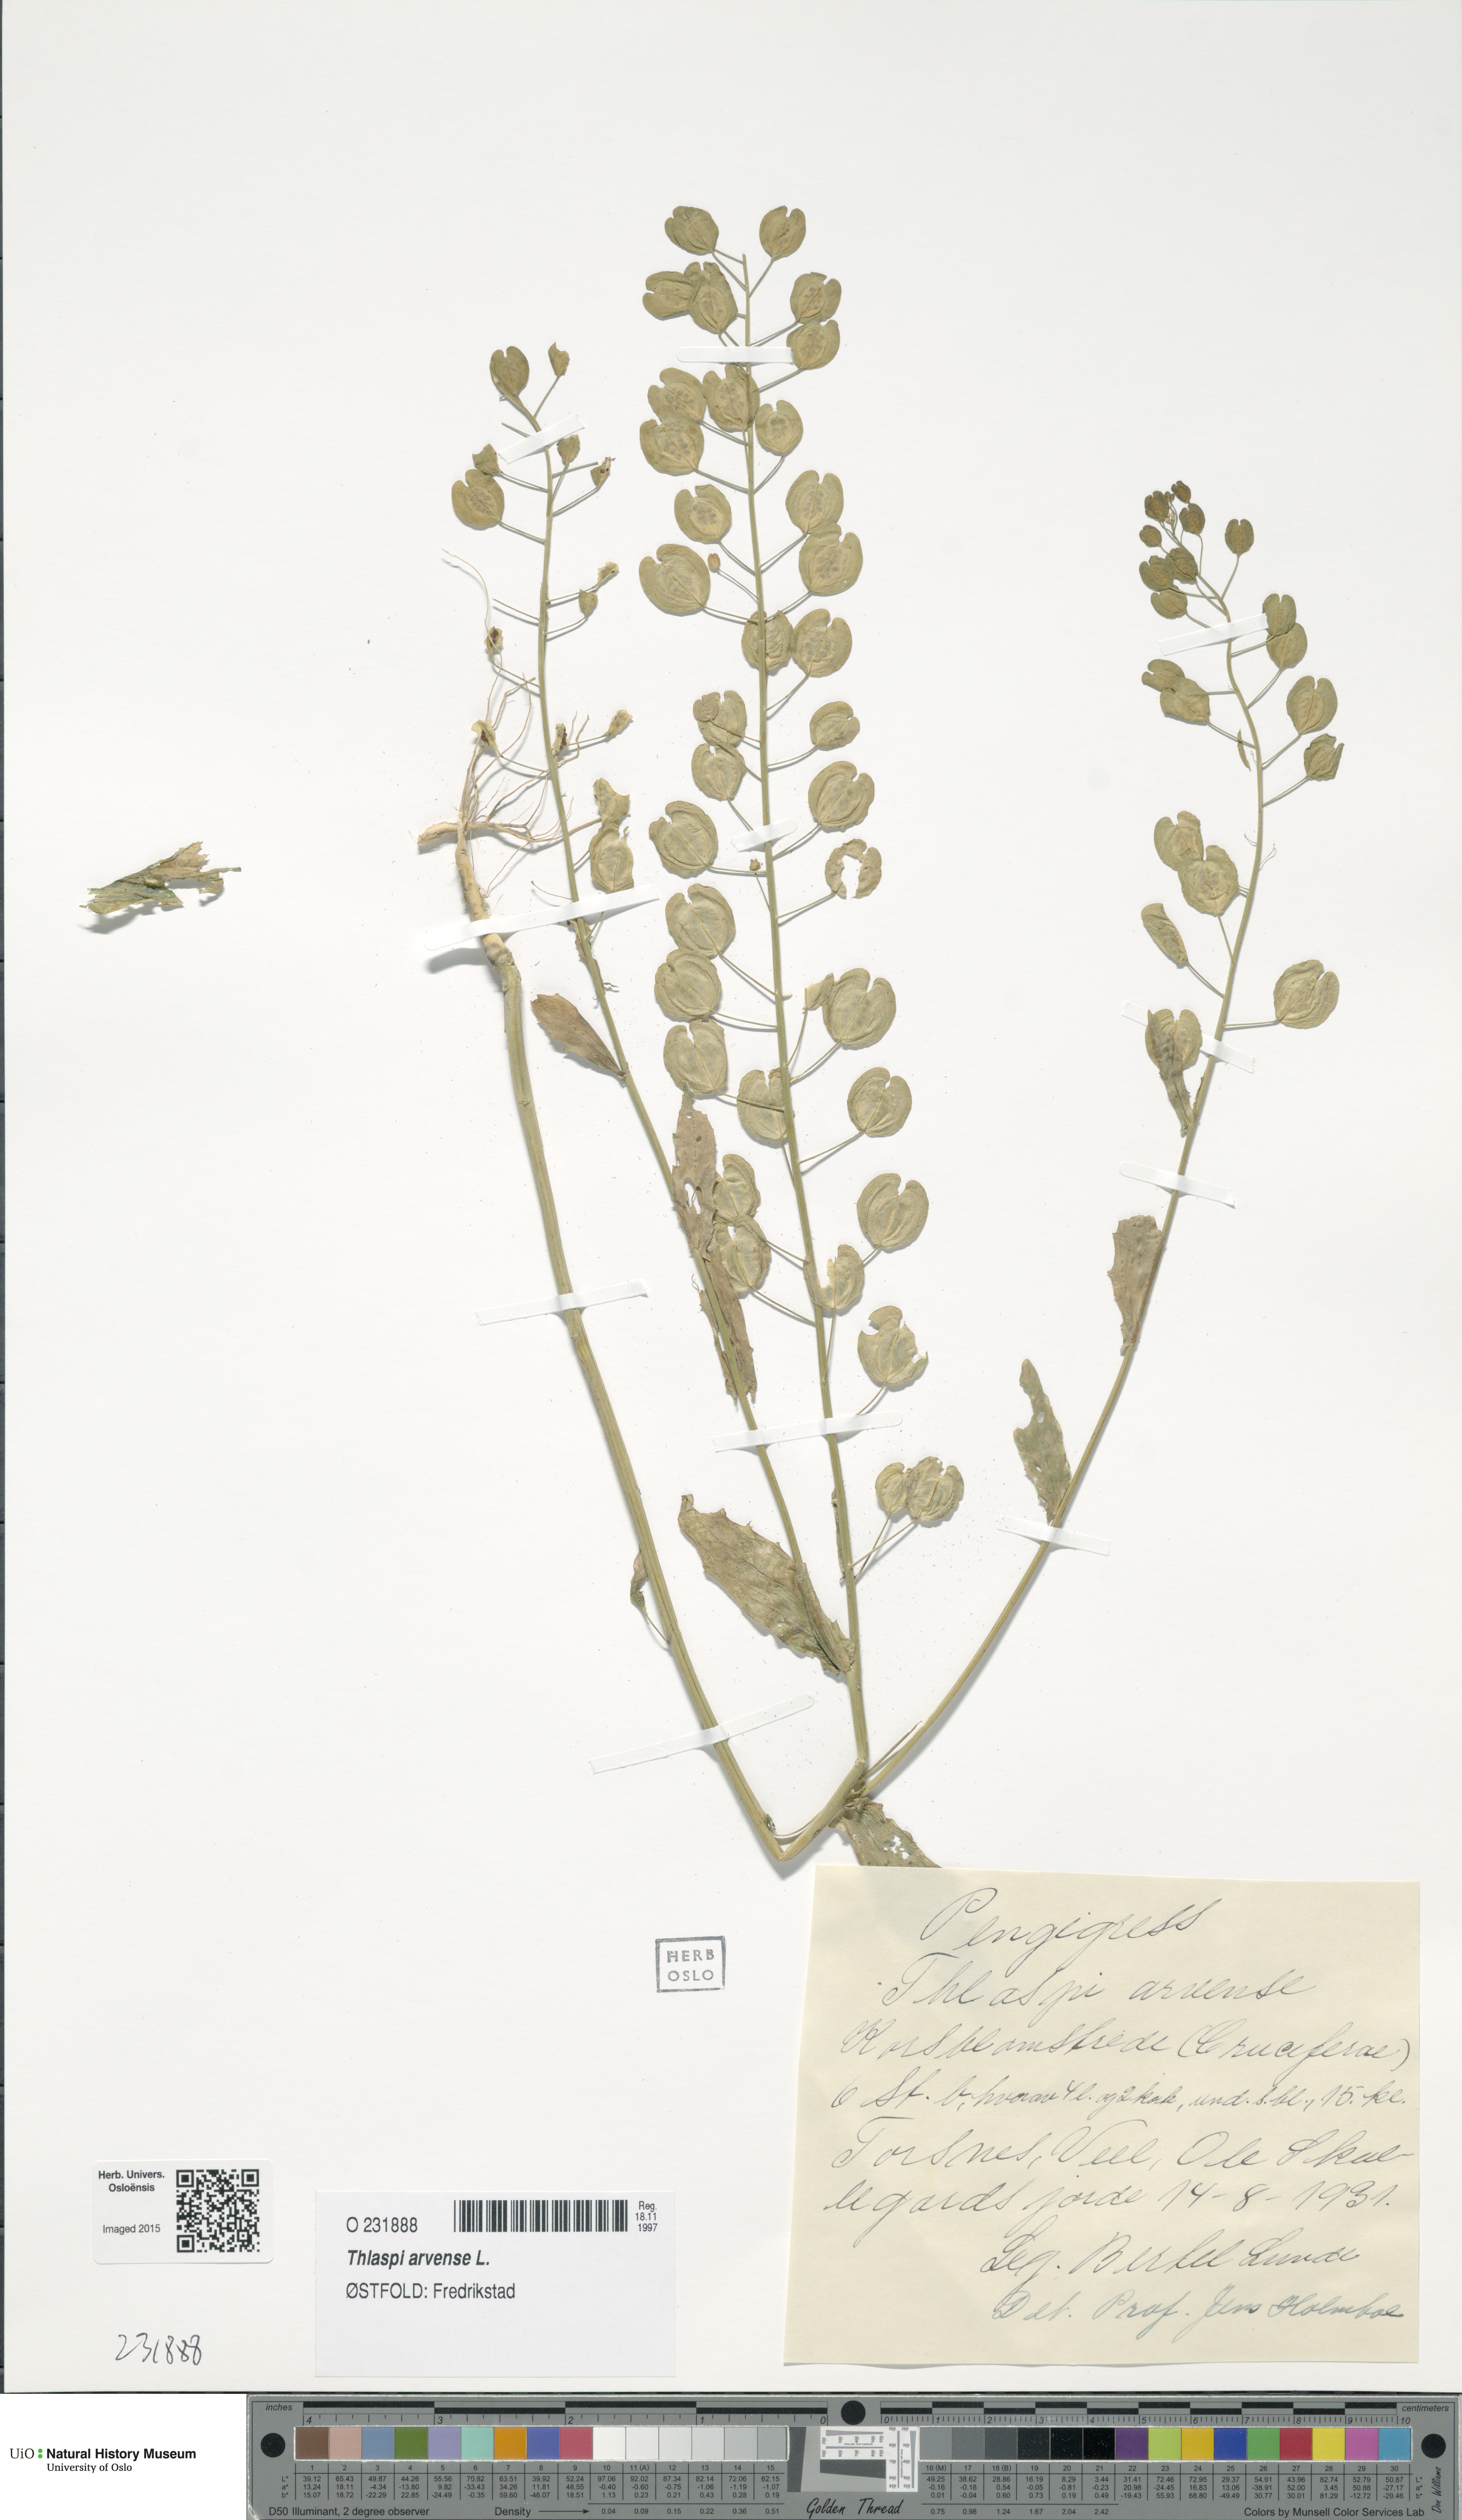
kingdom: Plantae
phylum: Tracheophyta
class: Magnoliopsida
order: Brassicales
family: Brassicaceae
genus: Thlaspi
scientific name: Thlaspi arvense
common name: Field pennycress
